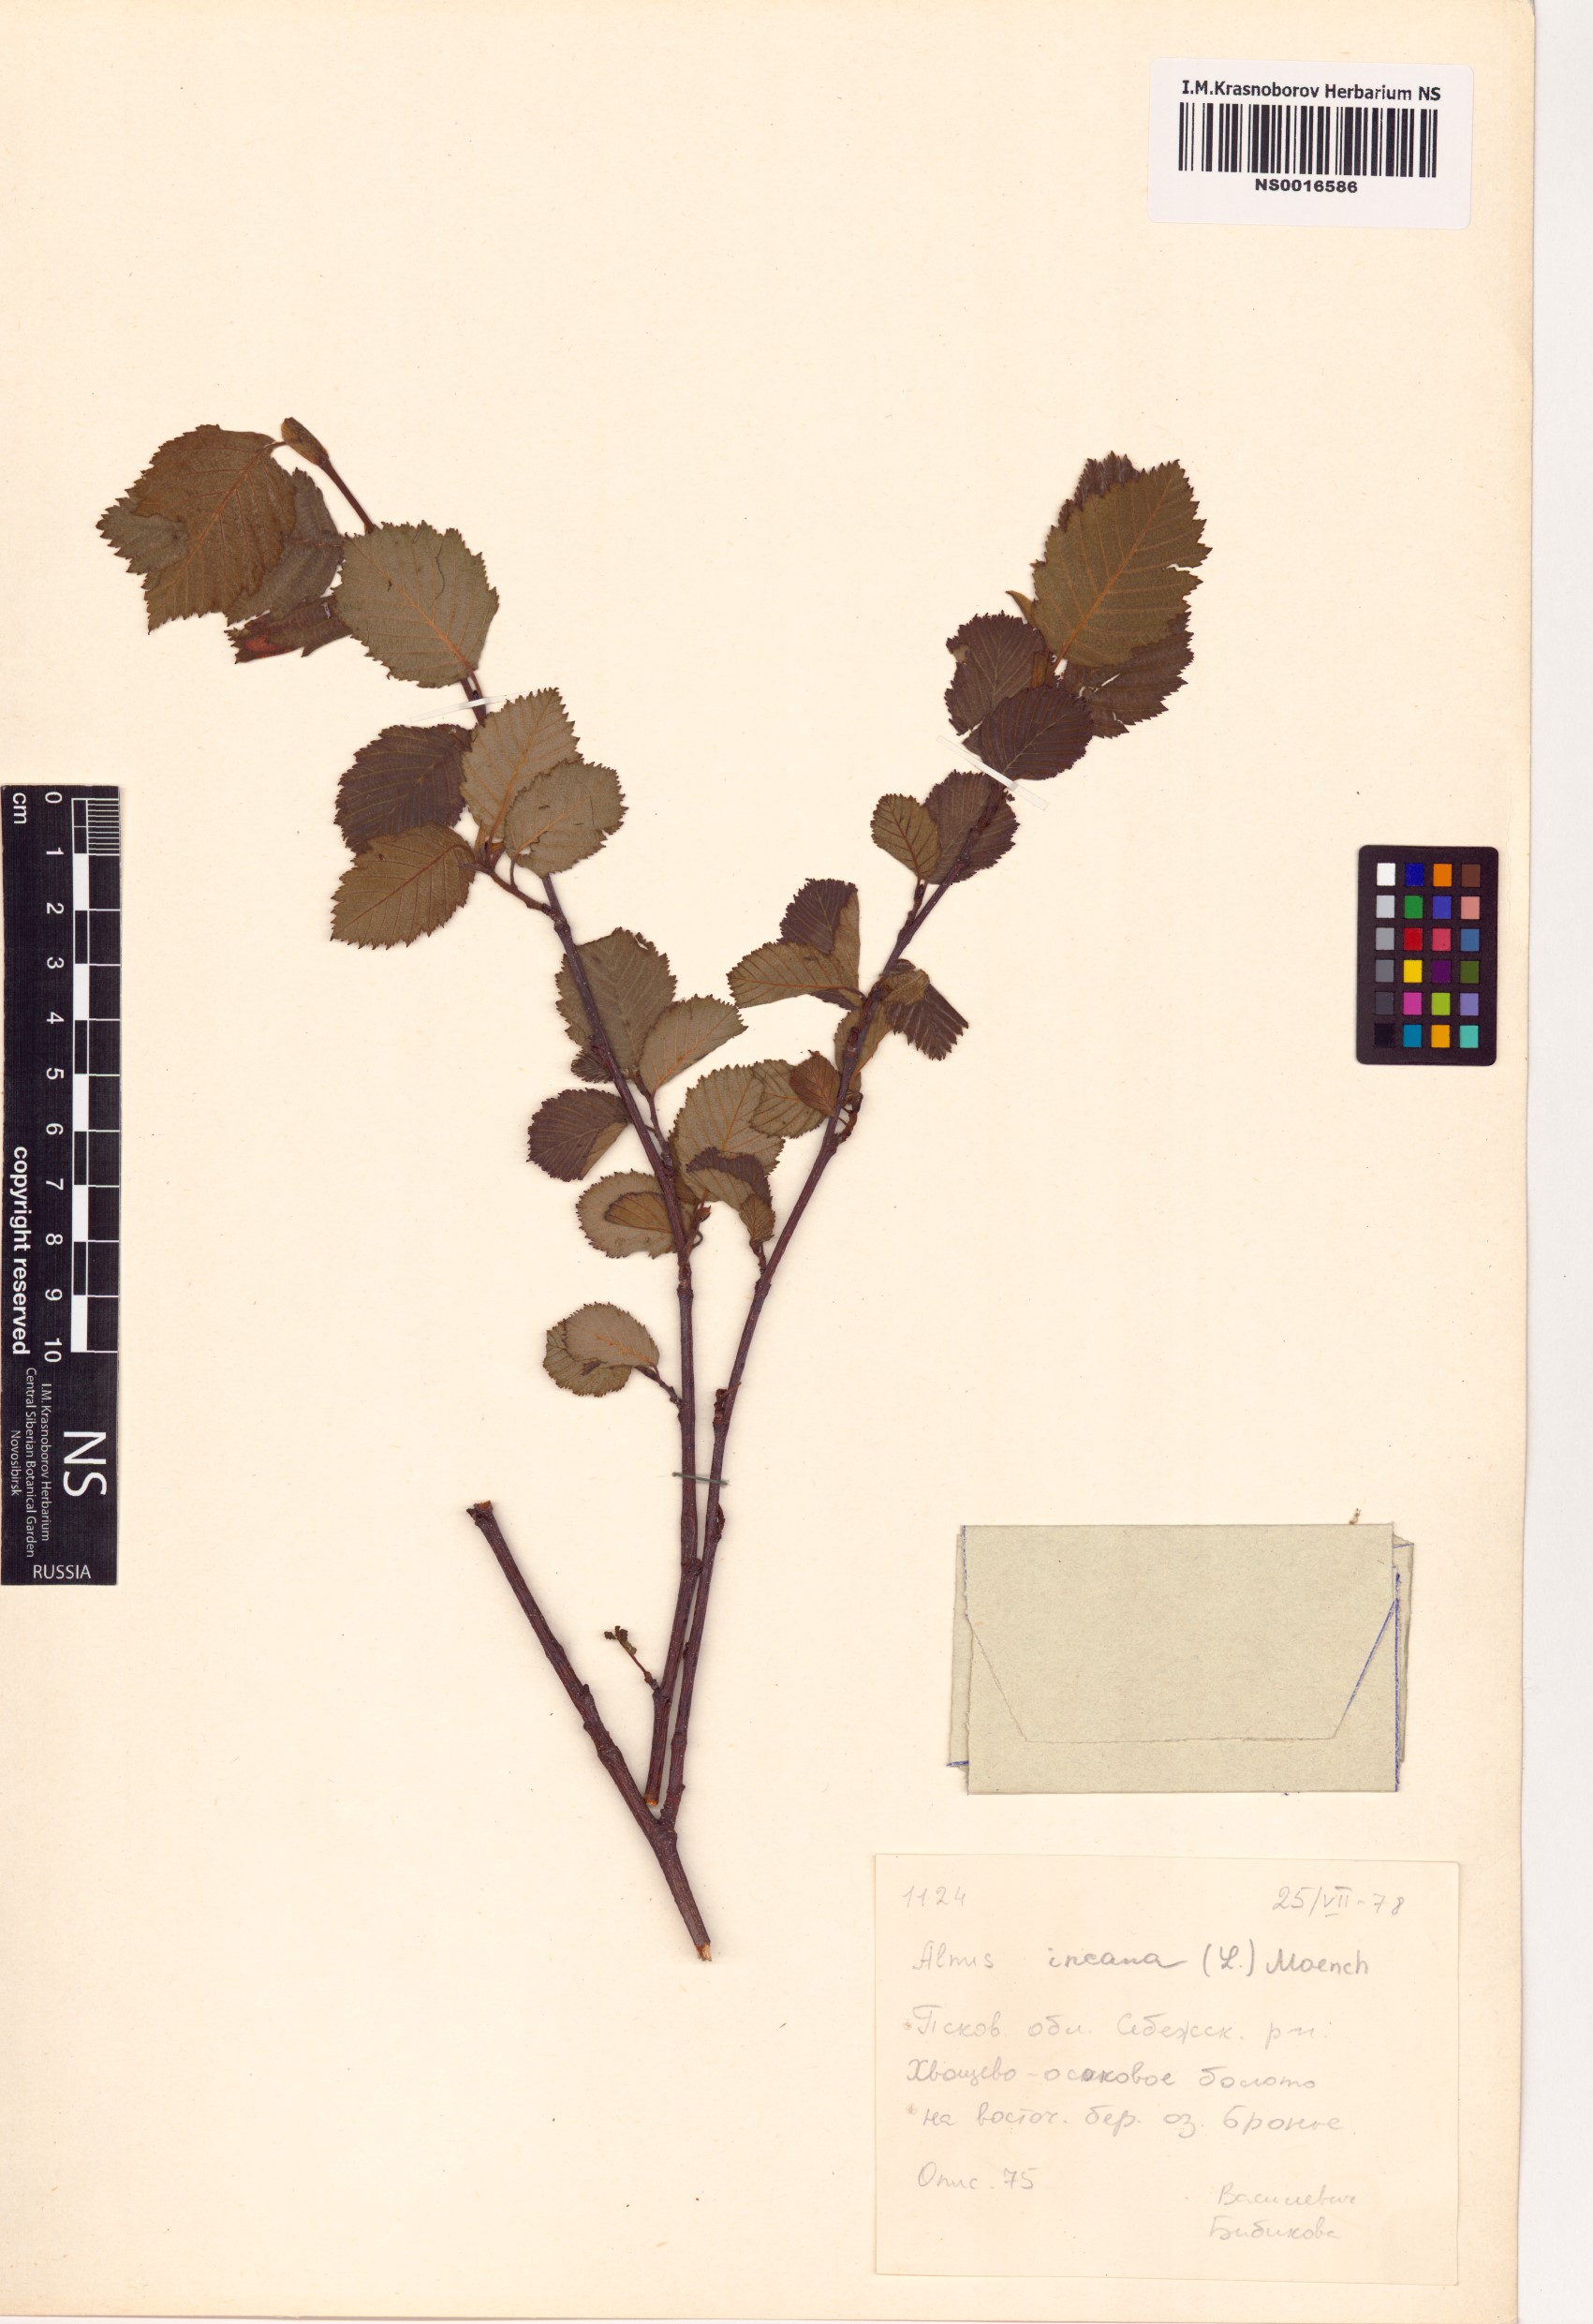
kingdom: Plantae
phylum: Tracheophyta
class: Magnoliopsida
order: Fagales
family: Betulaceae
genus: Alnus
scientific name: Alnus incana
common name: Grey alder
